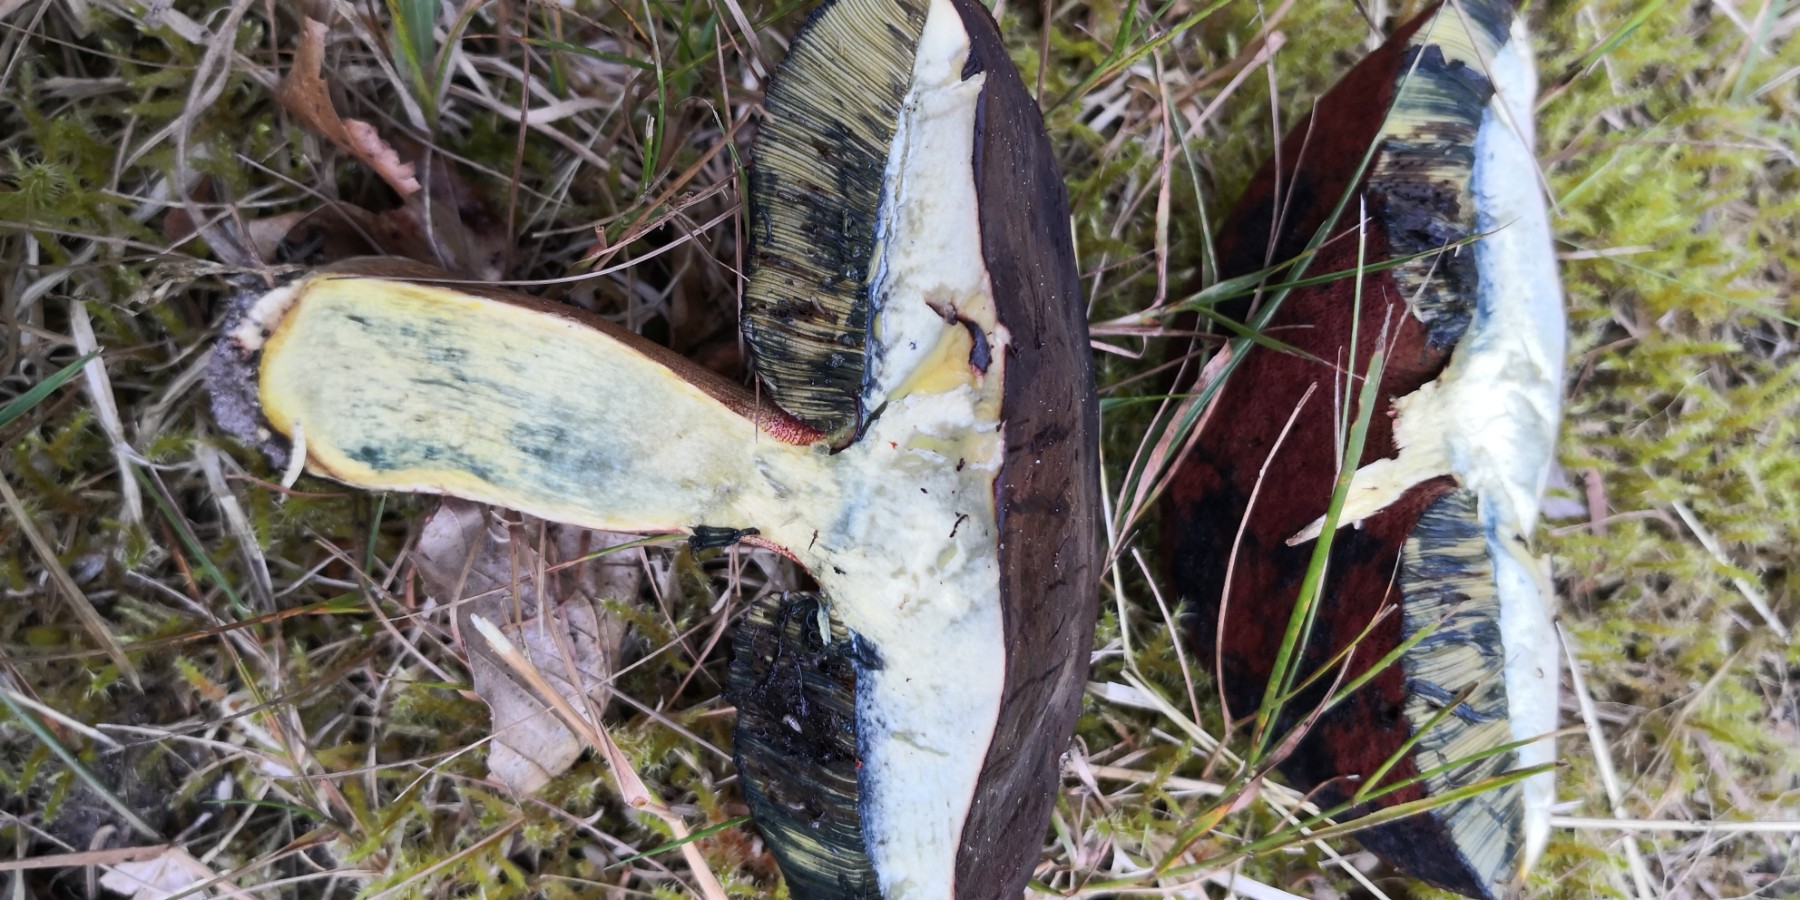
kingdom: Fungi
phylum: Basidiomycota
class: Agaricomycetes
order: Boletales
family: Boletaceae
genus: Neoboletus
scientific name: Neoboletus erythropus
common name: punktstokket indigorørhat
